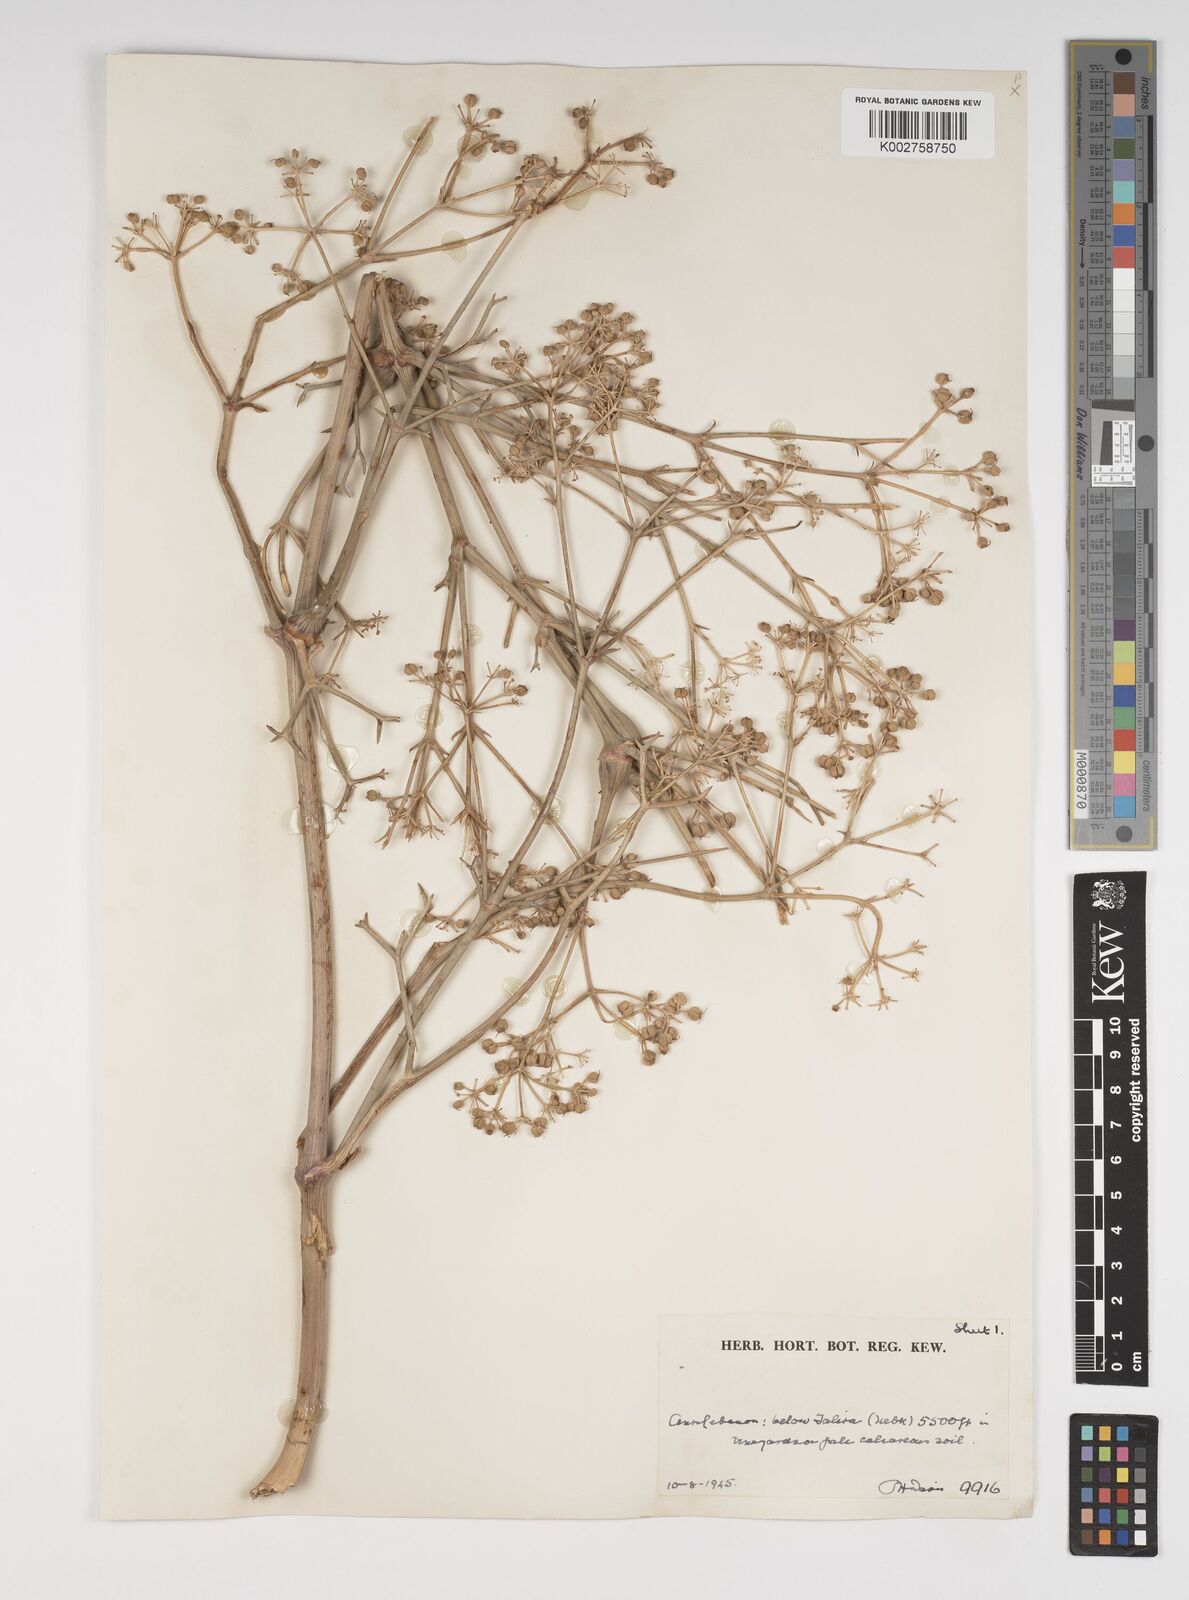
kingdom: Plantae
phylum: Tracheophyta
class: Magnoliopsida
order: Apiales
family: Apiaceae
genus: Cachrys
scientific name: Cachrys boissieri
